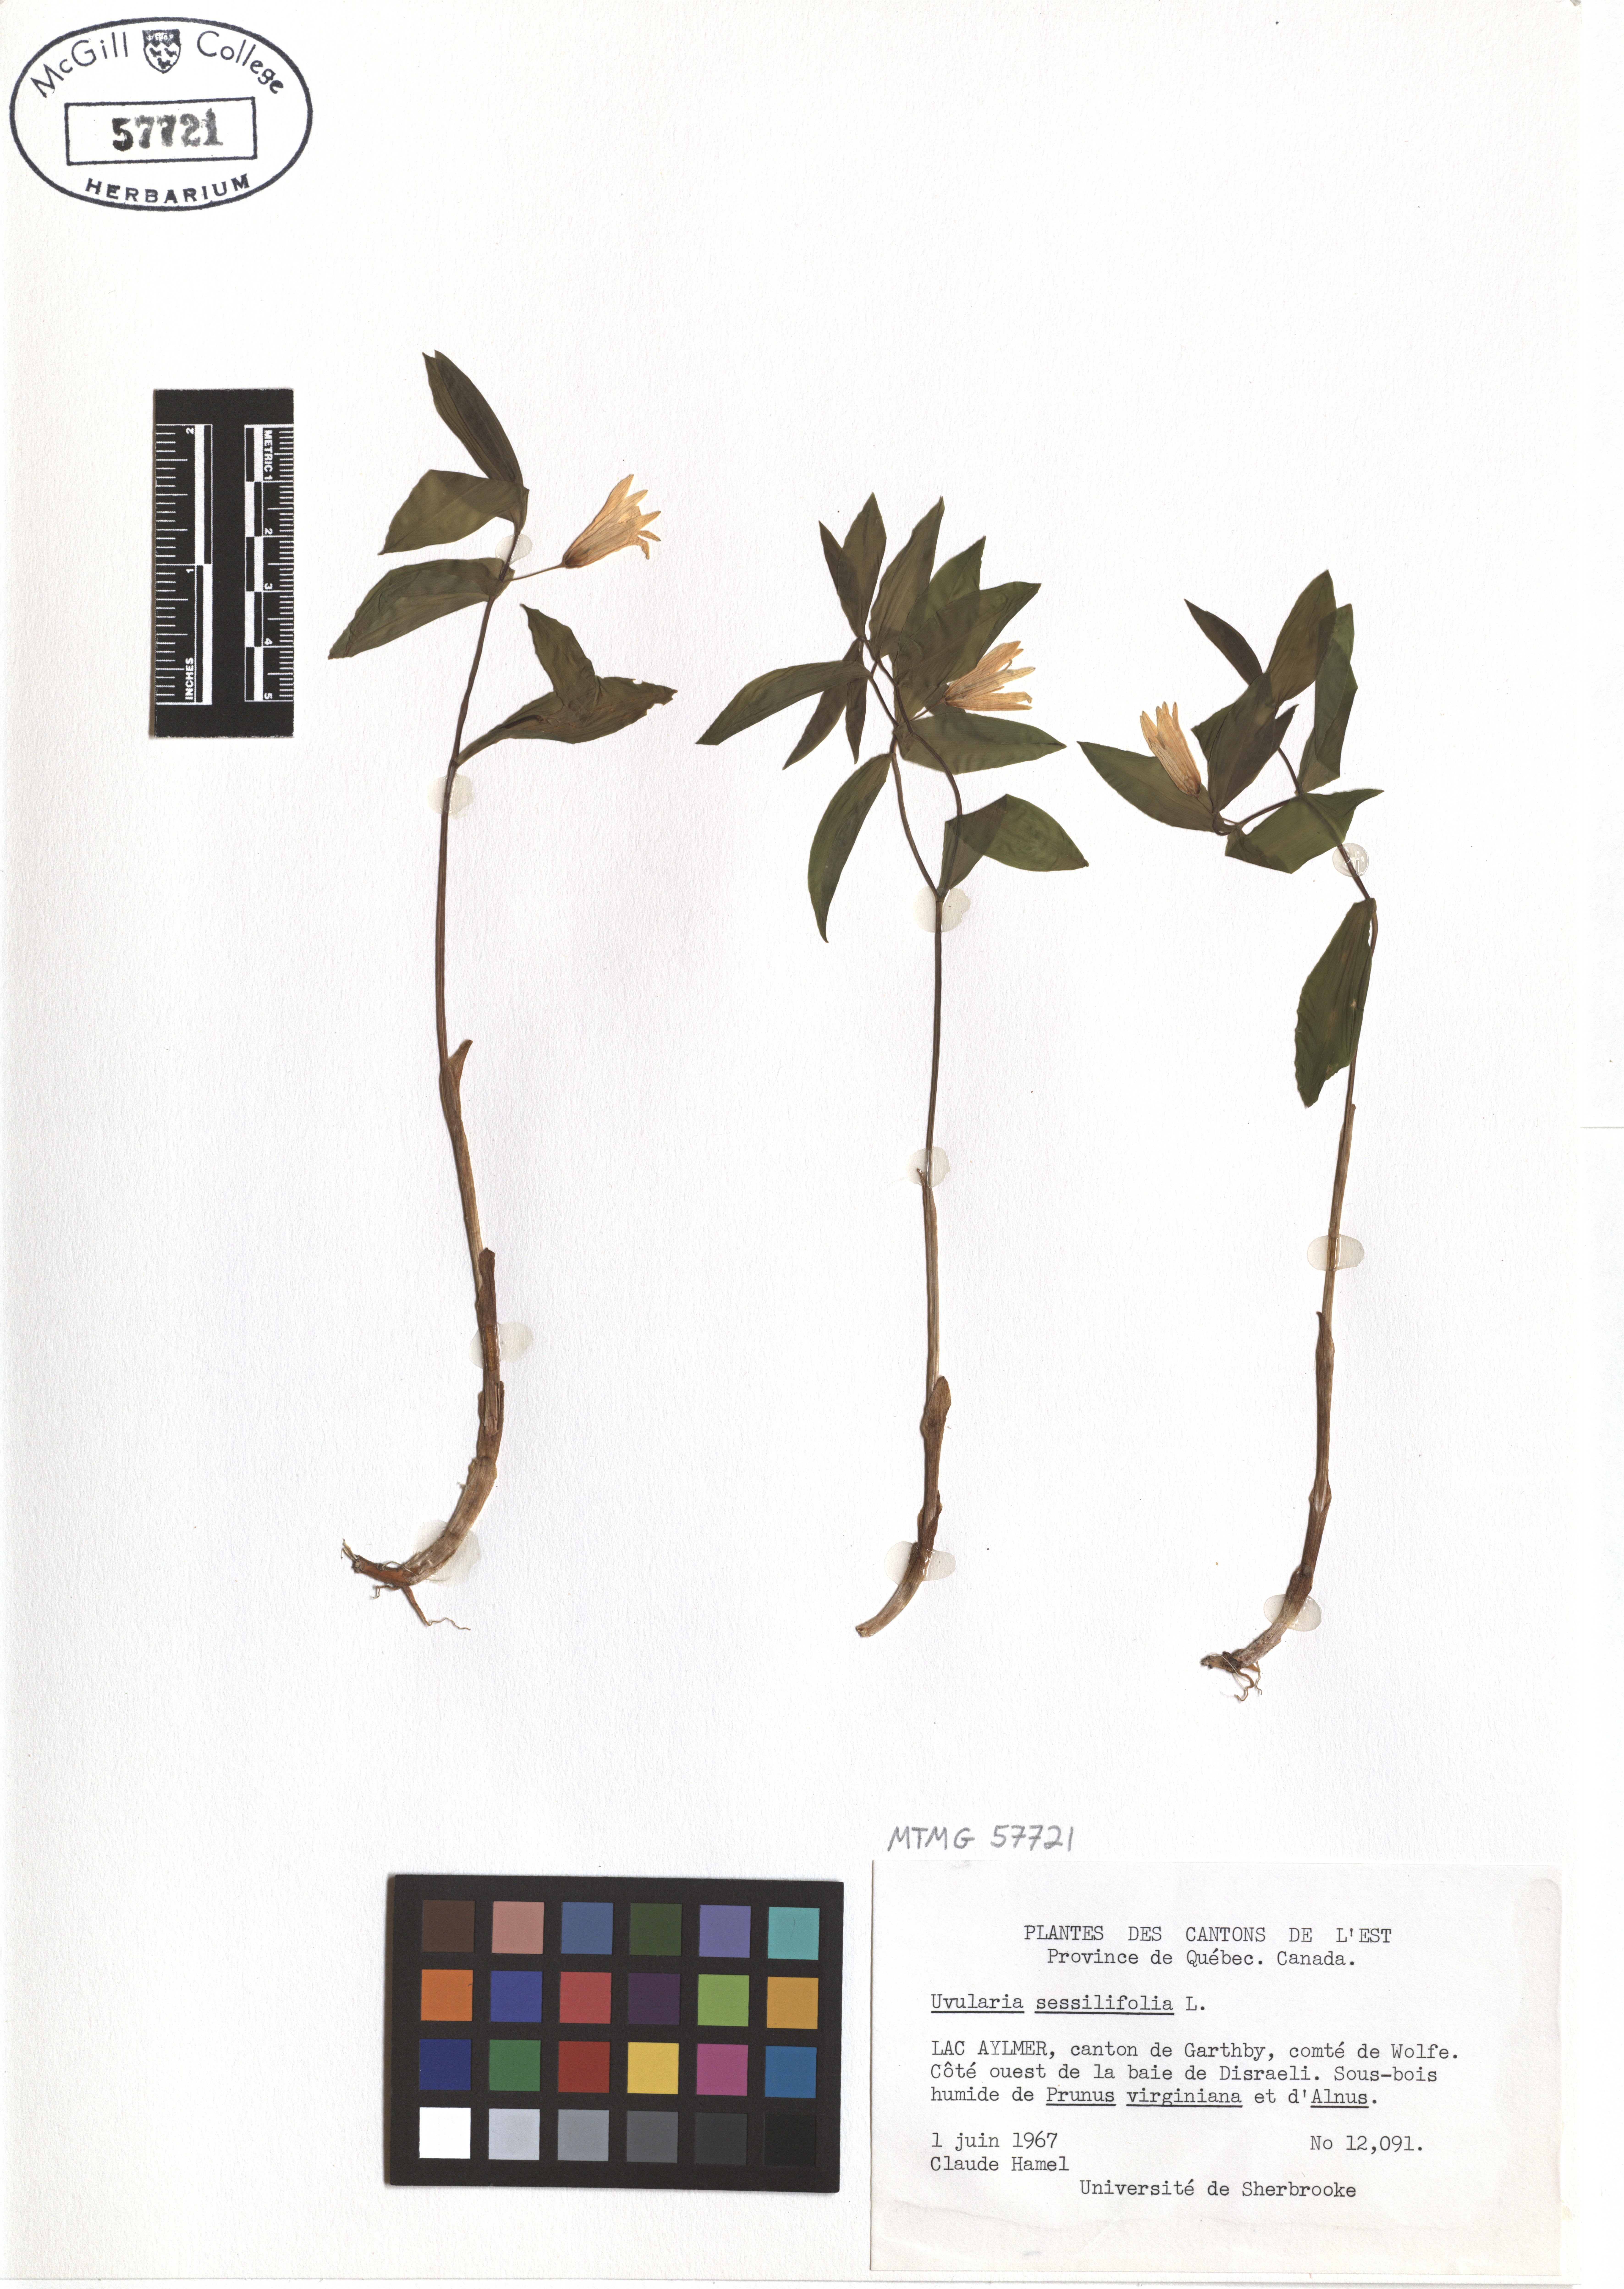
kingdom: Plantae
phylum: Tracheophyta
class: Liliopsida
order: Liliales
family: Colchicaceae
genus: Uvularia
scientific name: Uvularia sessilifolia
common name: Straw-lily
